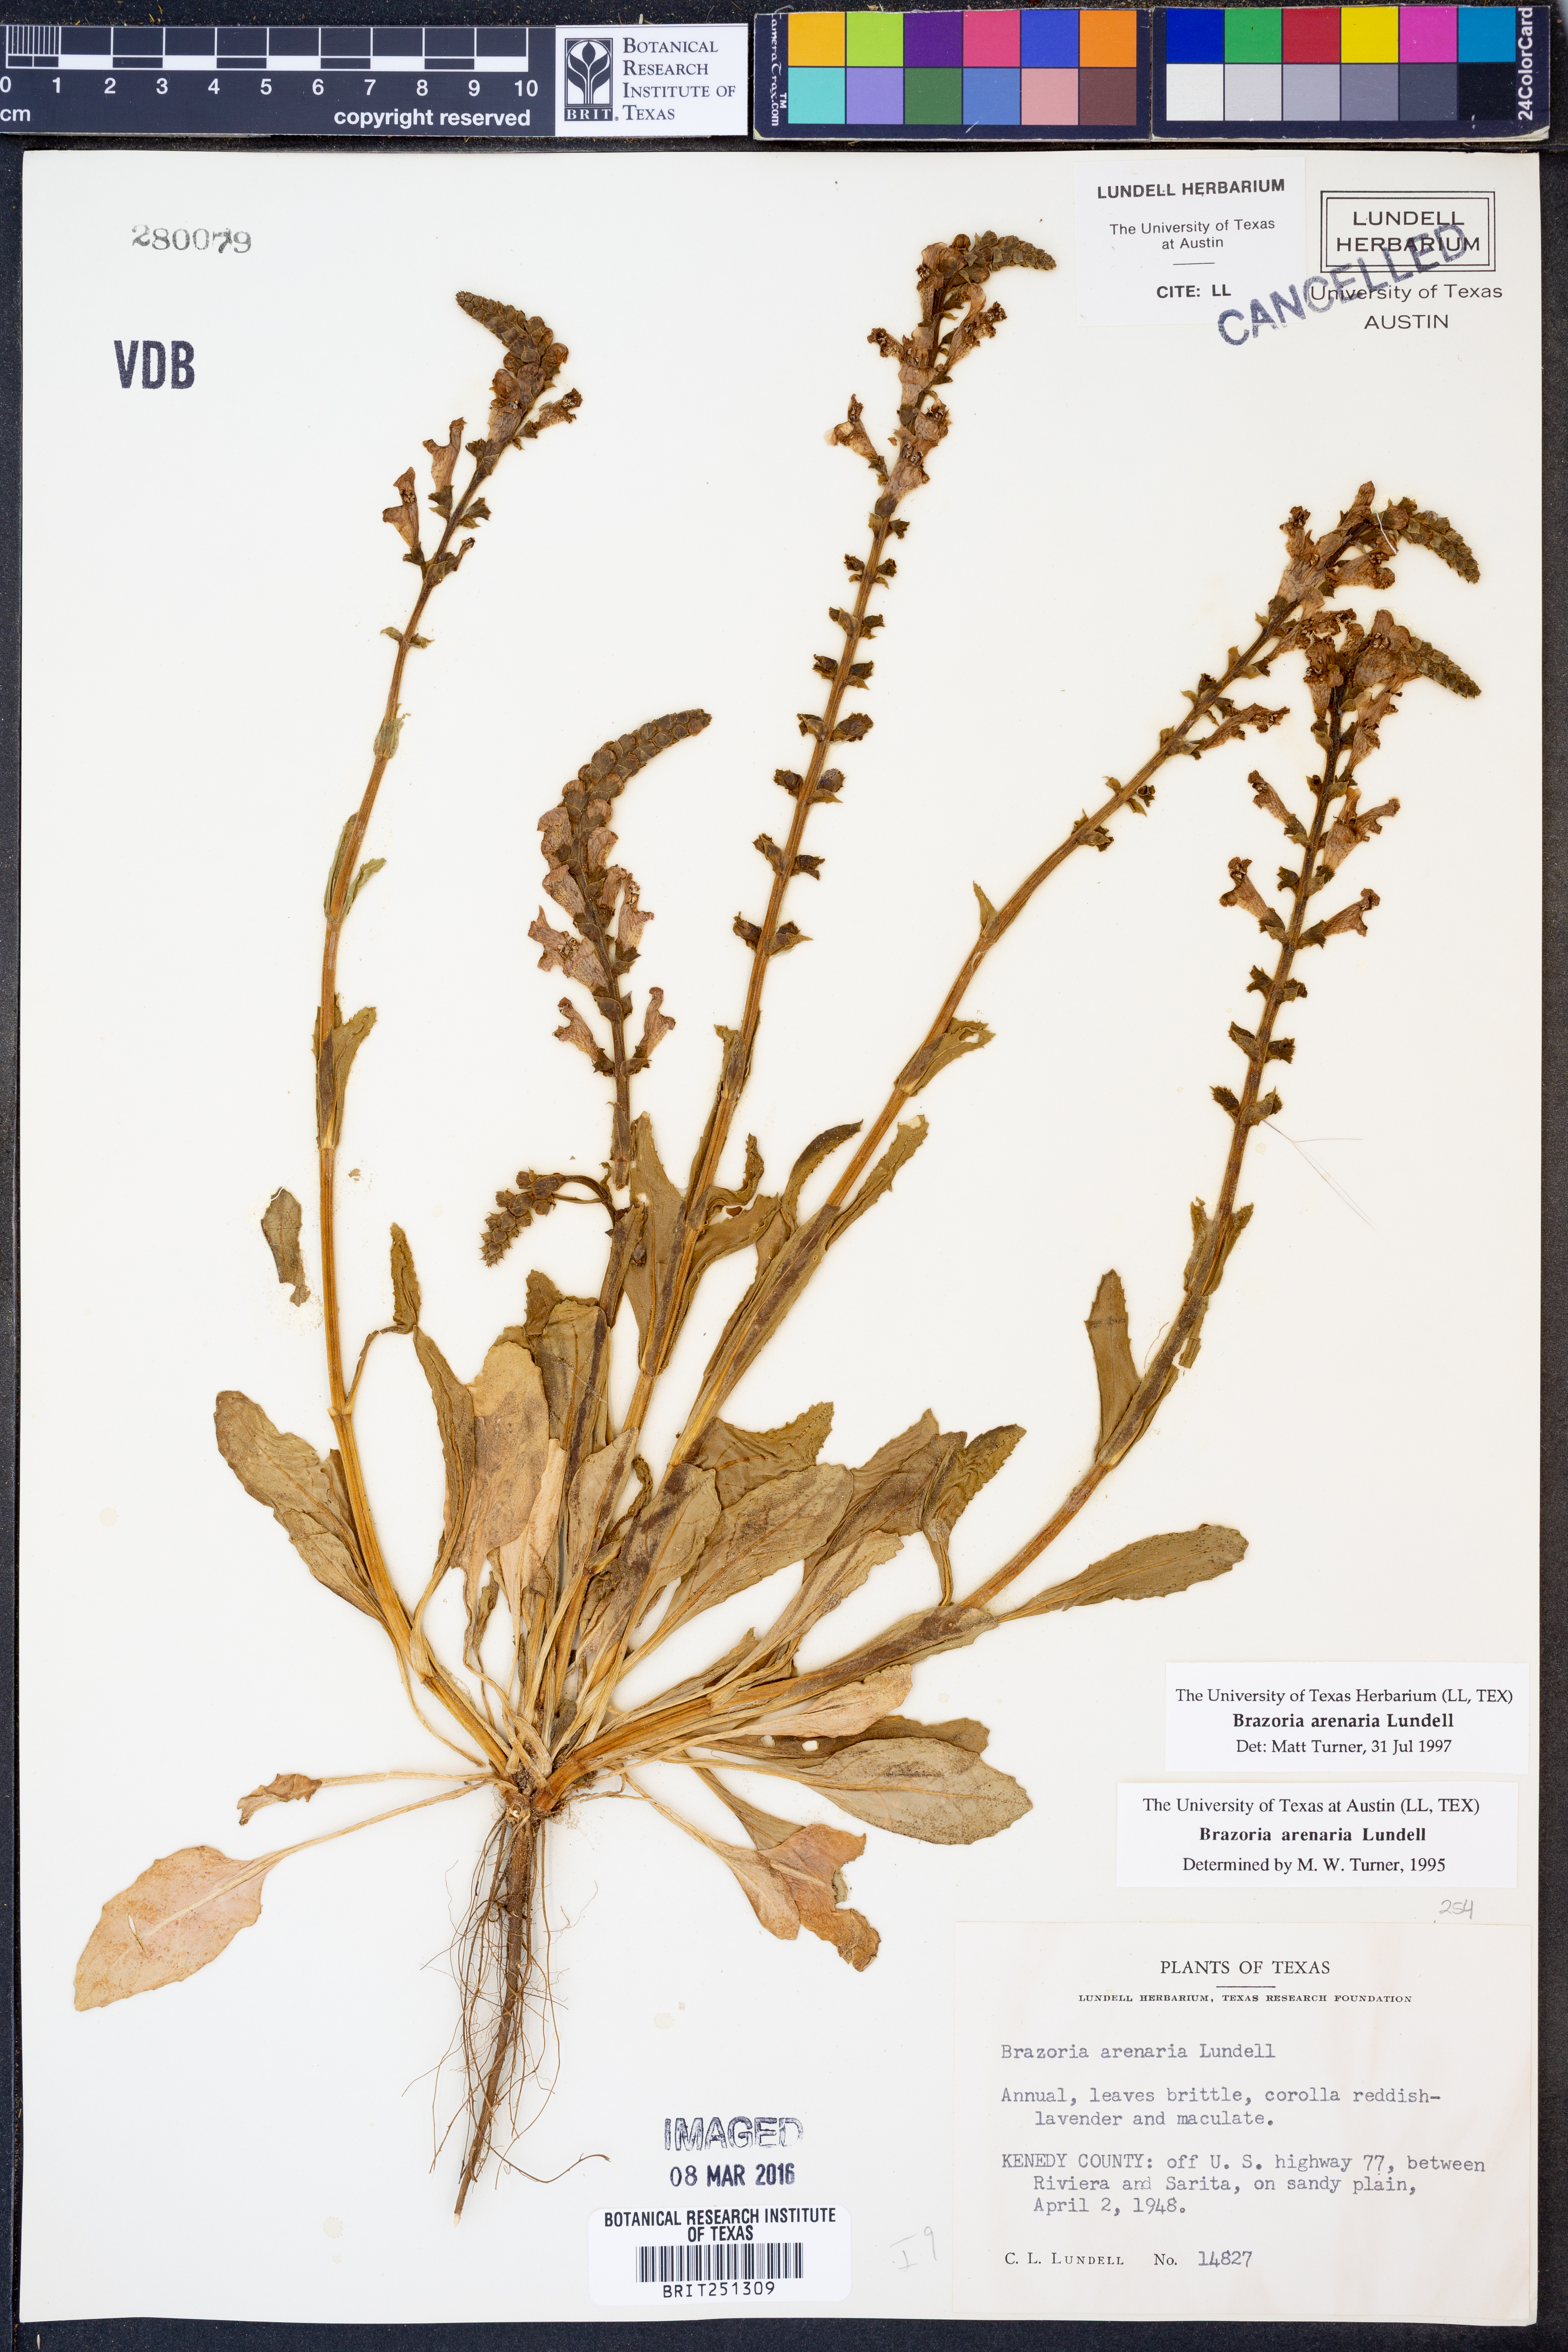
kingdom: Plantae
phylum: Tracheophyta
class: Magnoliopsida
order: Lamiales
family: Lamiaceae
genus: Brazoria
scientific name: Brazoria arenaria
